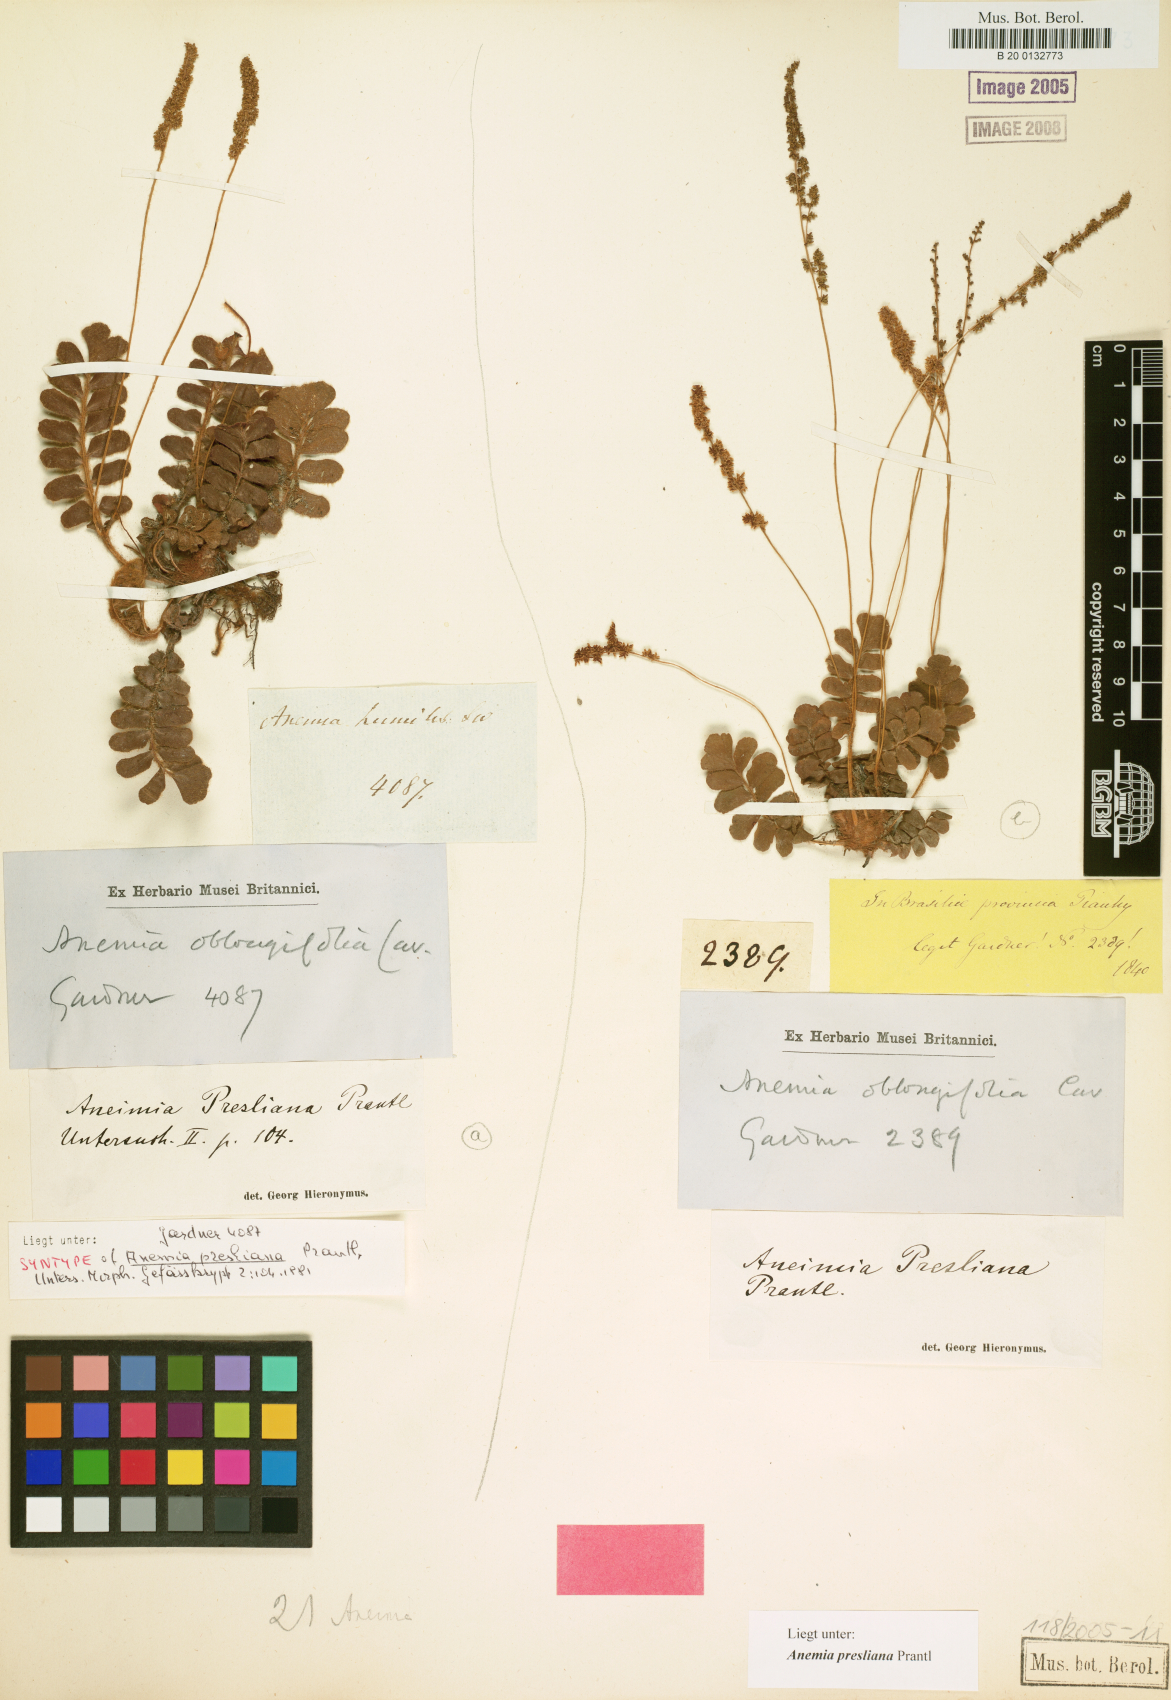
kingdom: Plantae
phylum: Tracheophyta
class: Polypodiopsida
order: Schizaeales
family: Anemiaceae
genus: Anemia
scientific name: Anemia presliana
